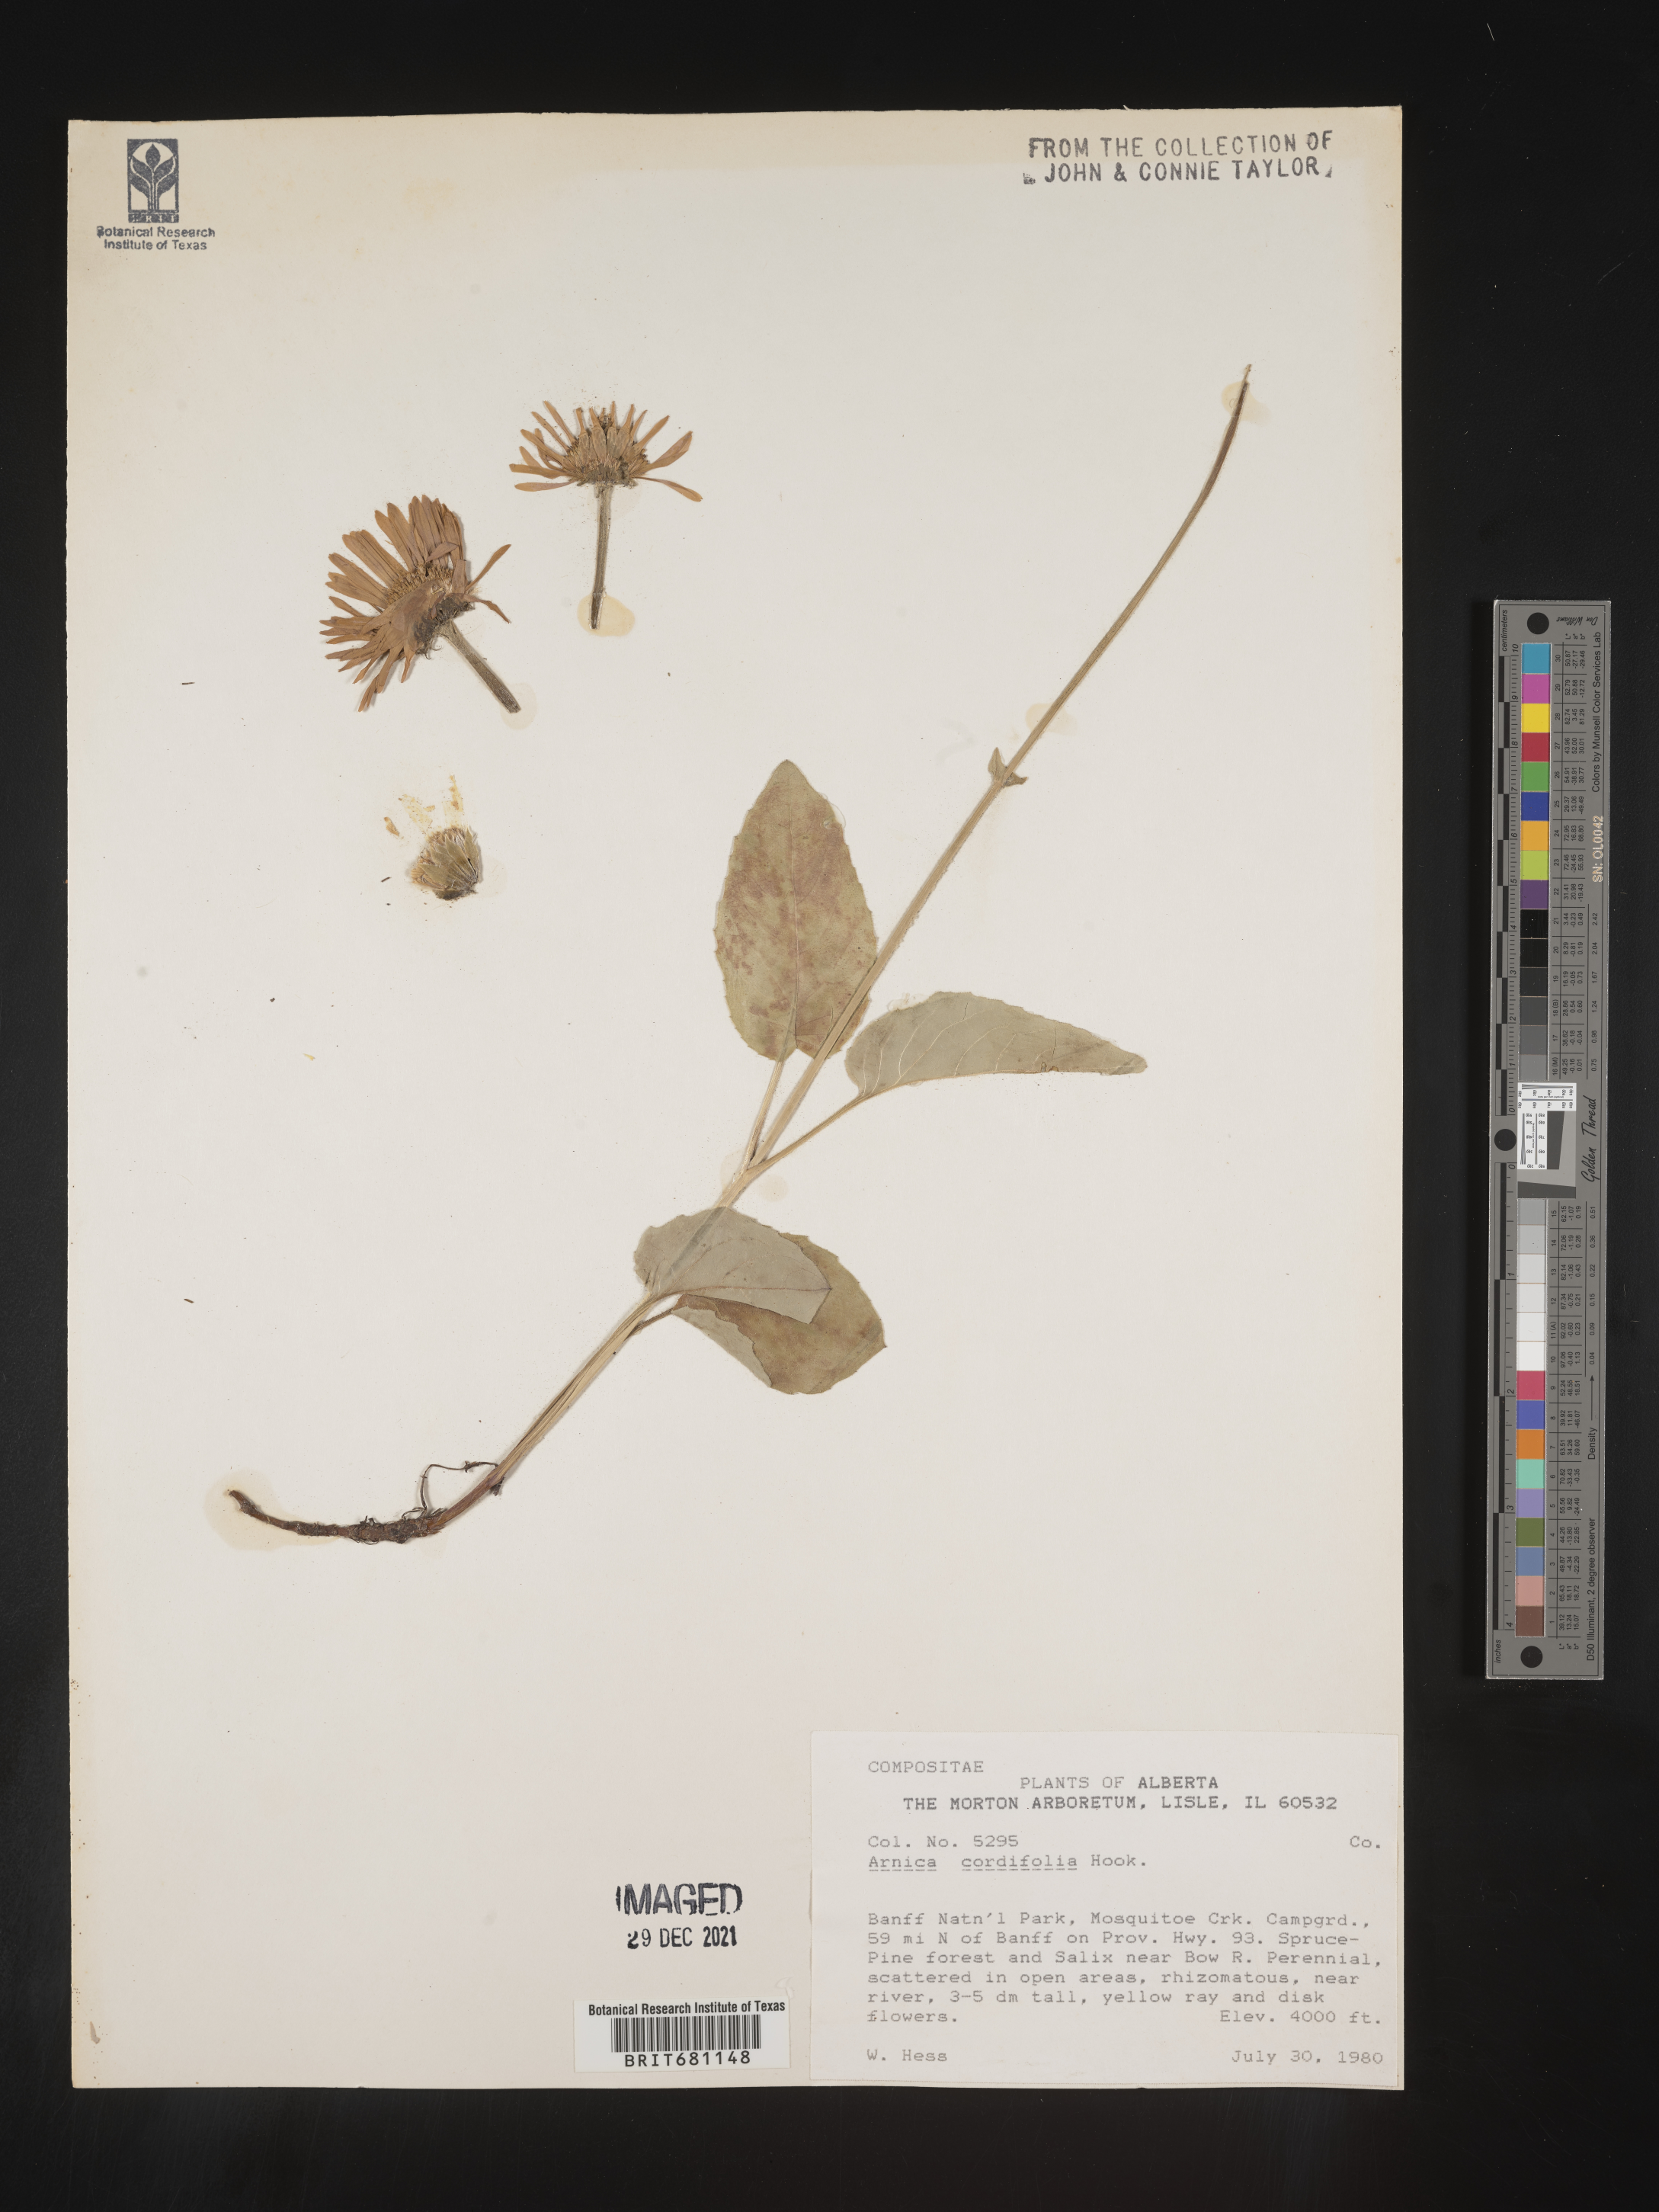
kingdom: Plantae
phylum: Tracheophyta
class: Magnoliopsida
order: Asterales
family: Asteraceae
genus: Arnica
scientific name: Arnica cordifolia
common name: Heart-leaf arnica
